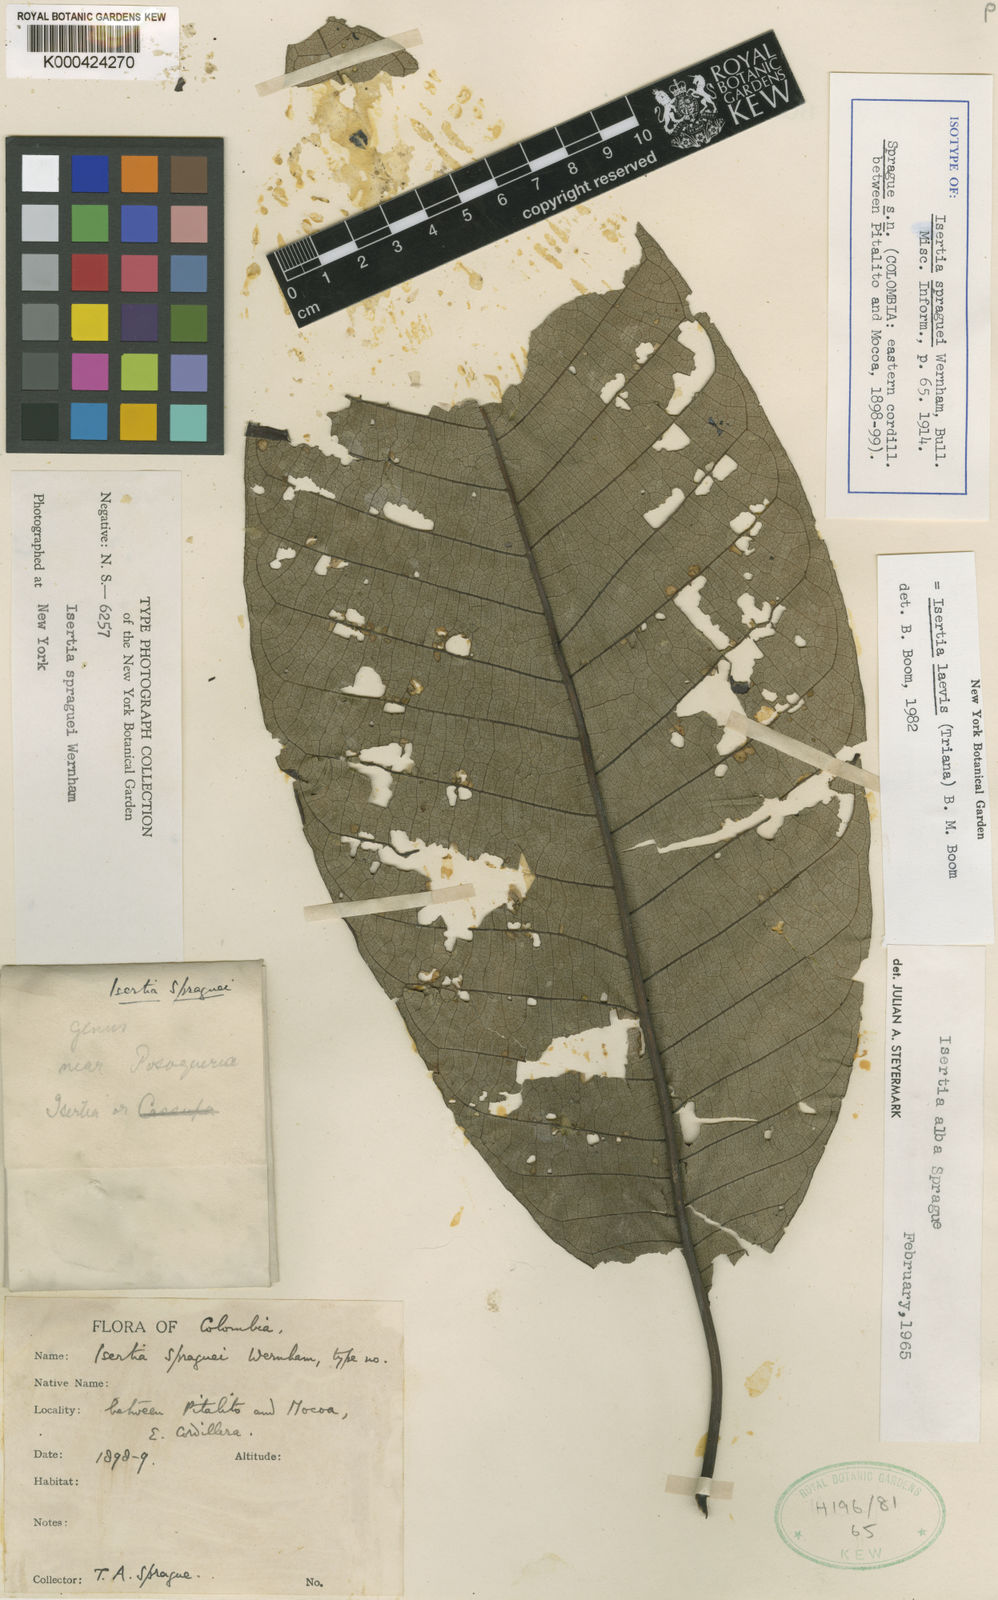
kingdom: Plantae
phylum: Tracheophyta
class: Magnoliopsida
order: Gentianales
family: Rubiaceae
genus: Isertia
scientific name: Isertia laevis
